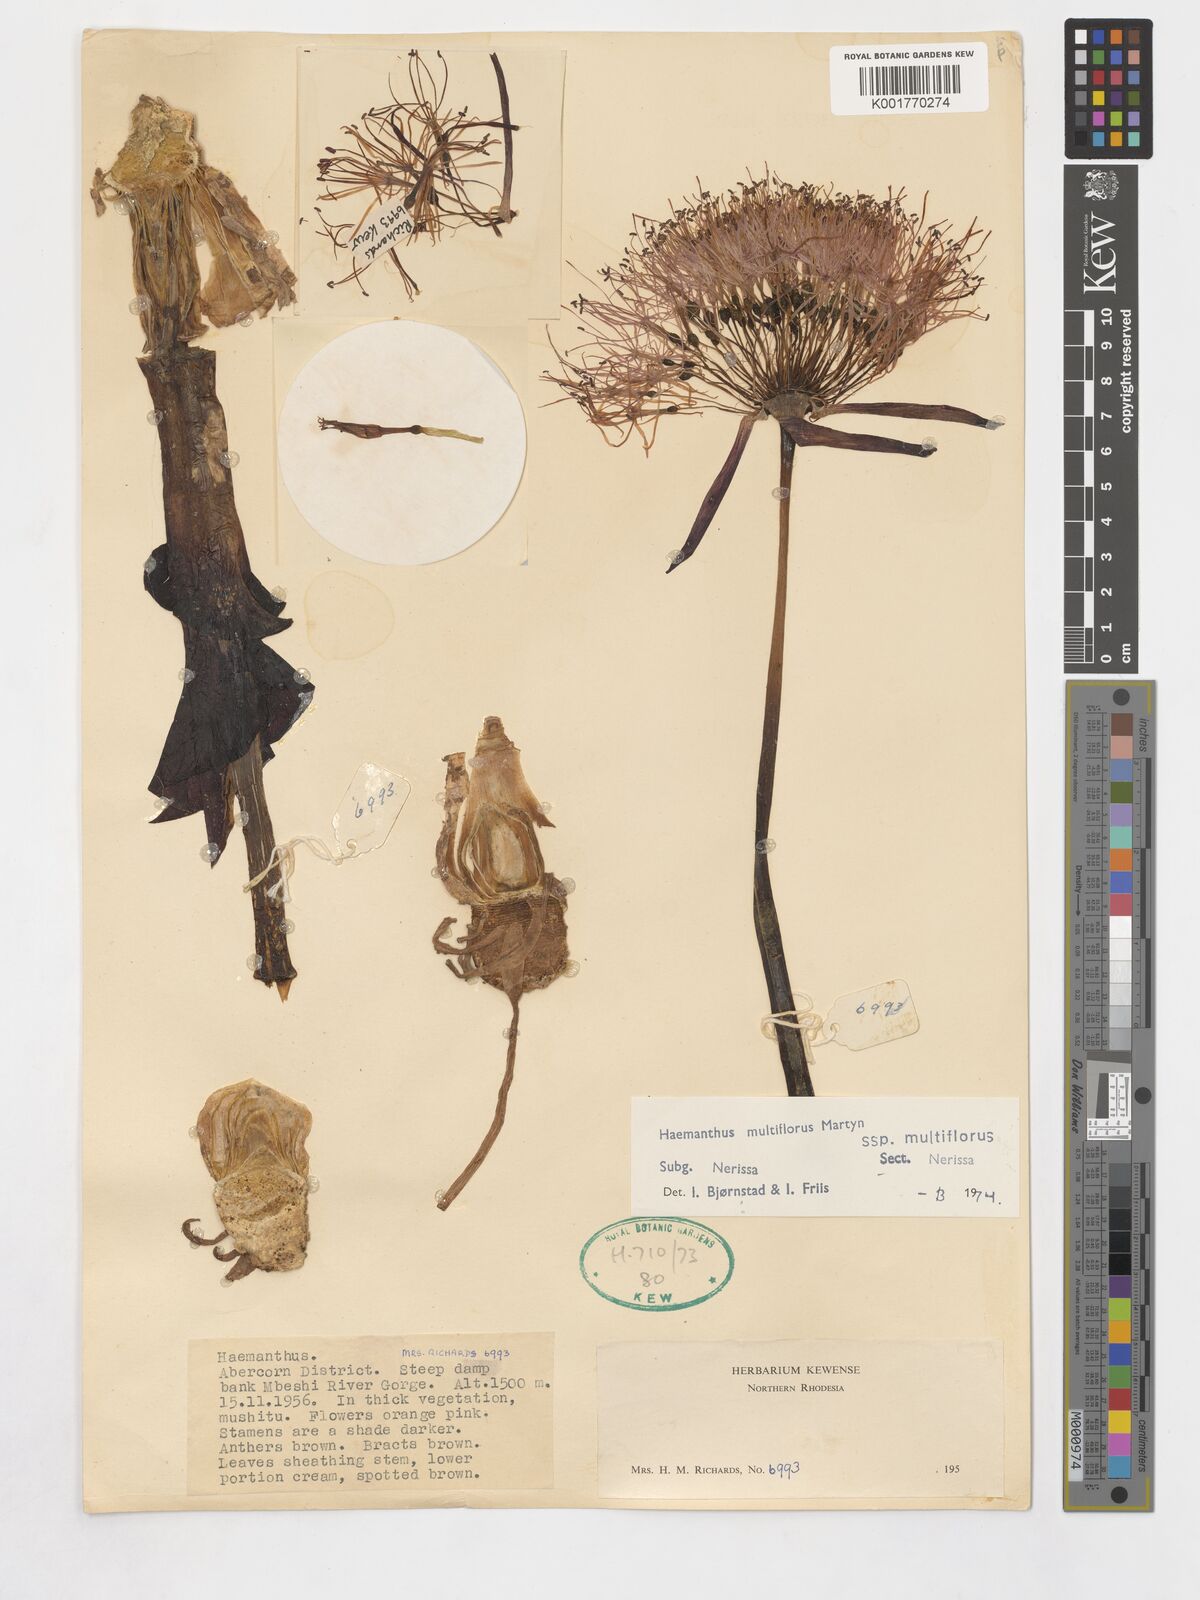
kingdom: Plantae
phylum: Tracheophyta
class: Liliopsida
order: Asparagales
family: Amaryllidaceae
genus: Scadoxus
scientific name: Scadoxus multiflorus
